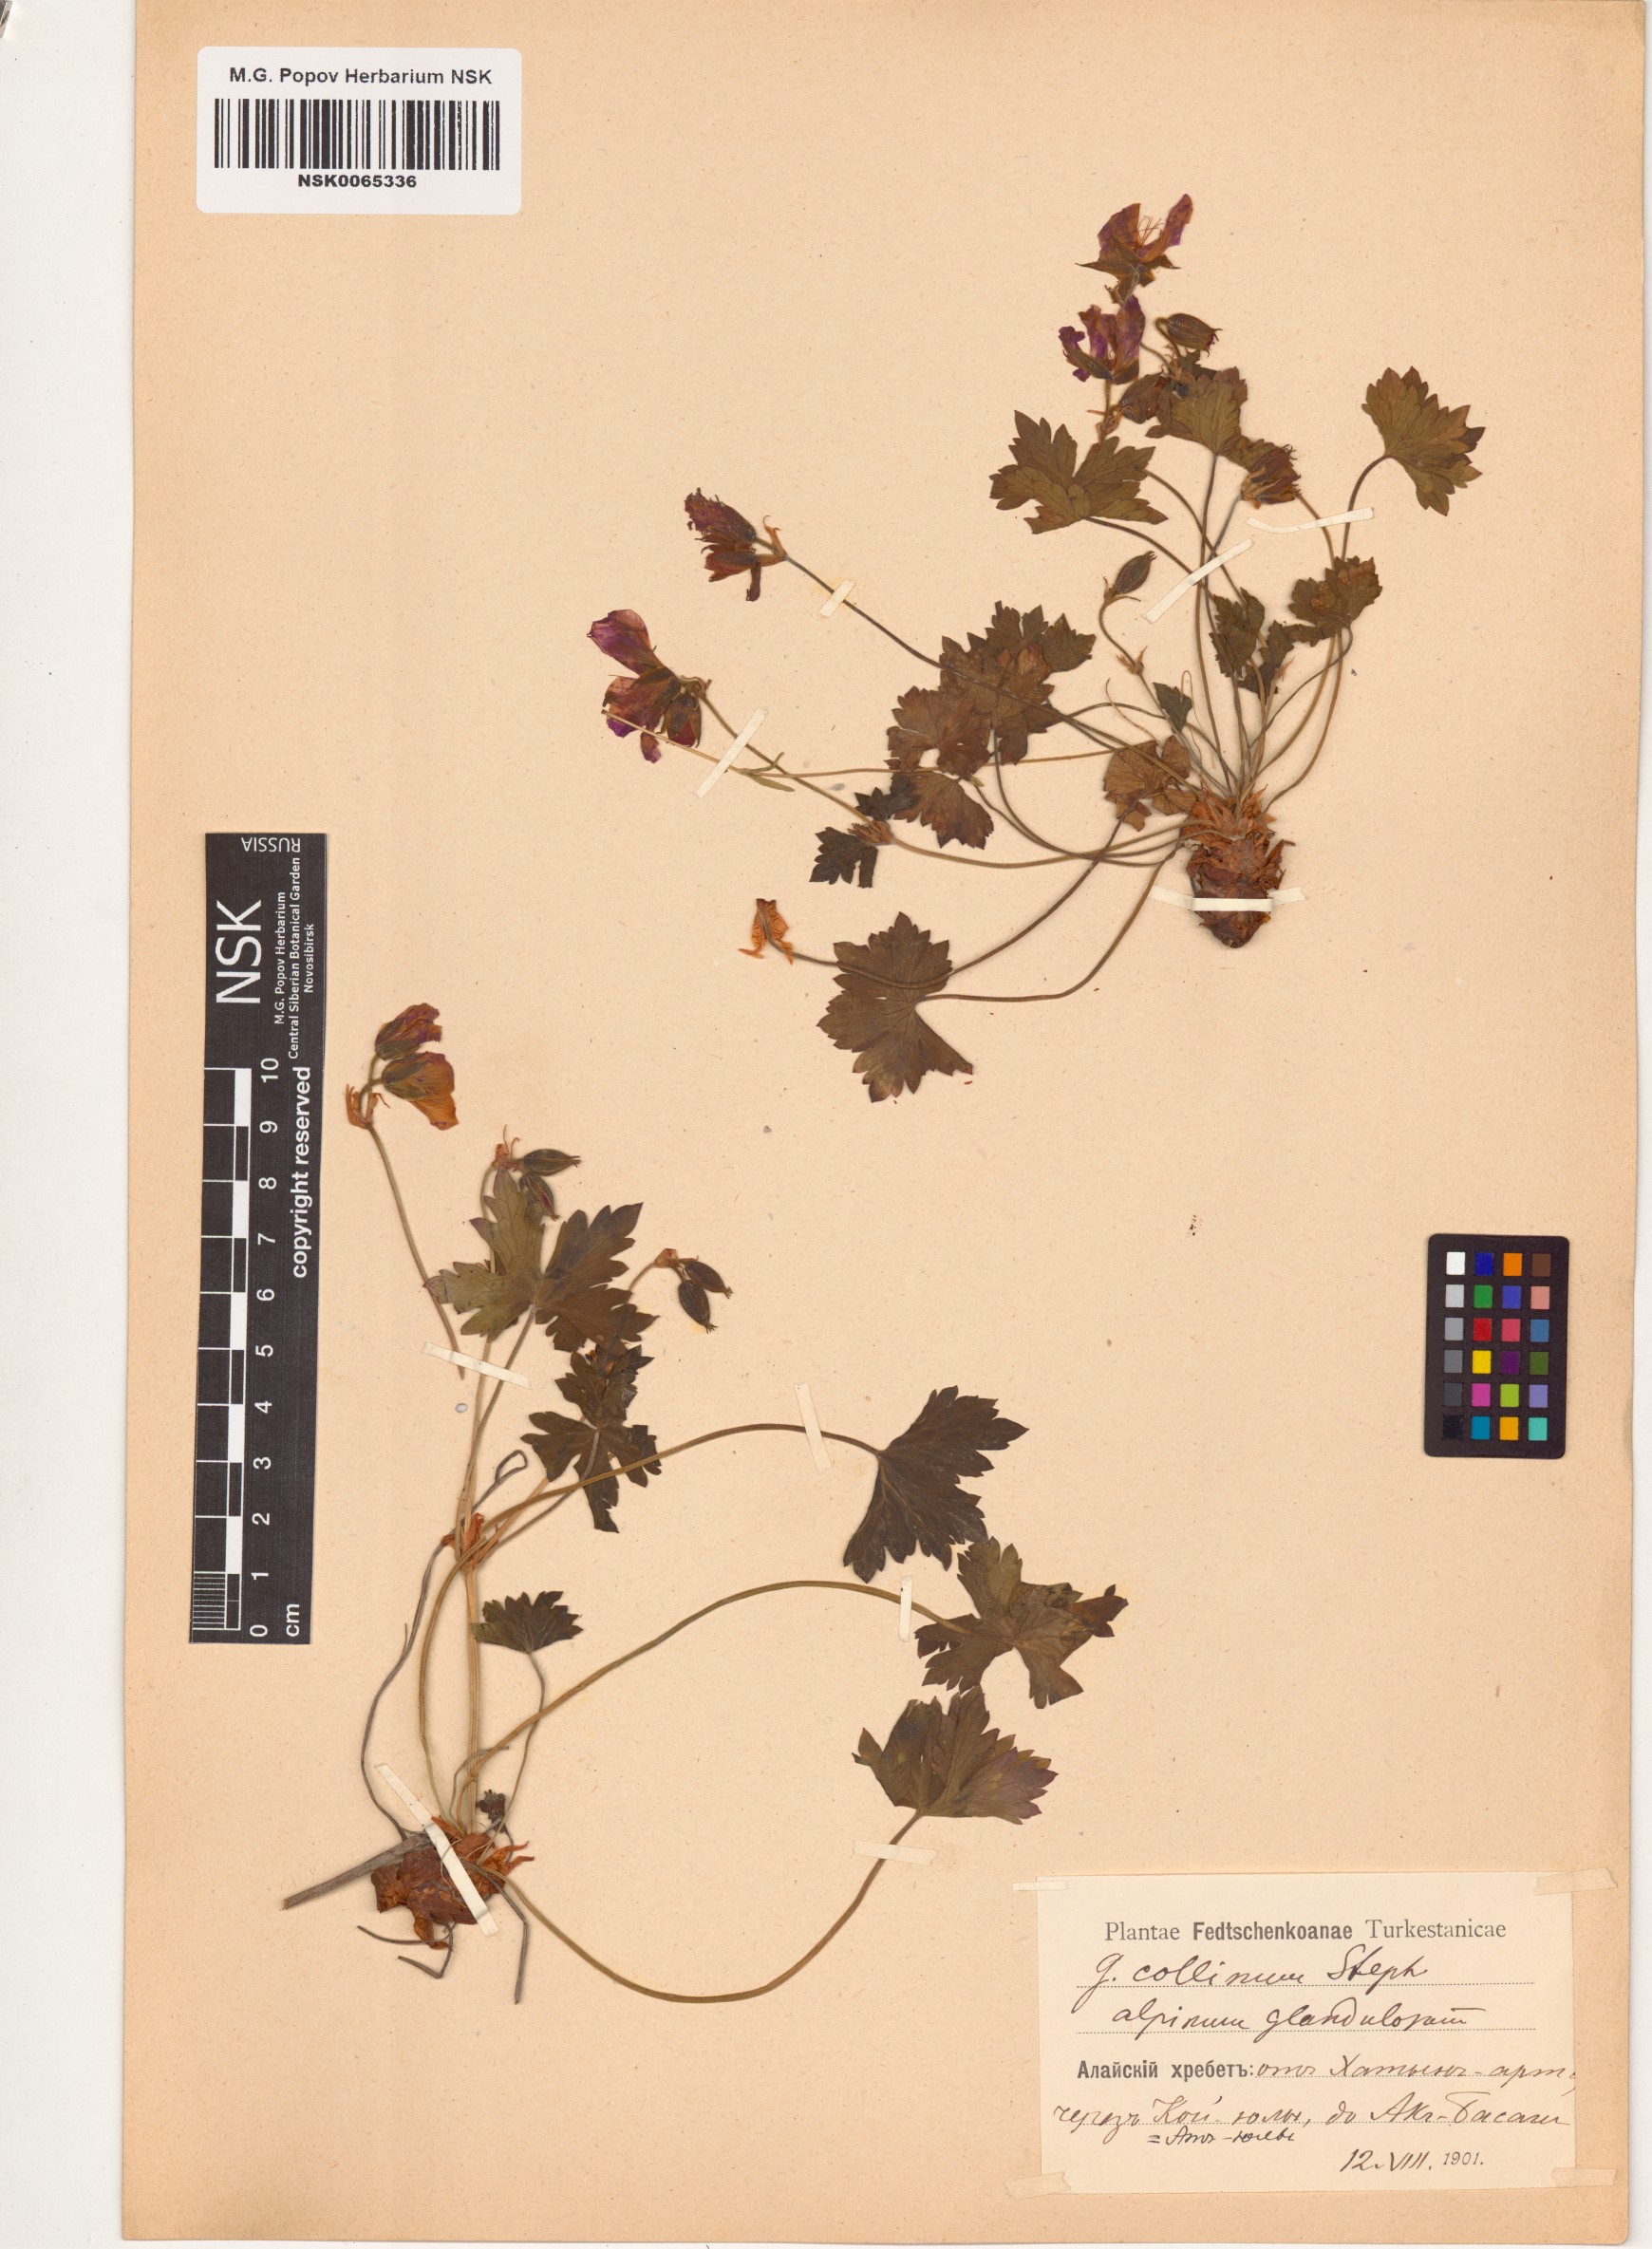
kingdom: Plantae
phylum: Tracheophyta
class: Magnoliopsida
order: Geraniales
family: Geraniaceae
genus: Geranium
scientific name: Geranium collinum
